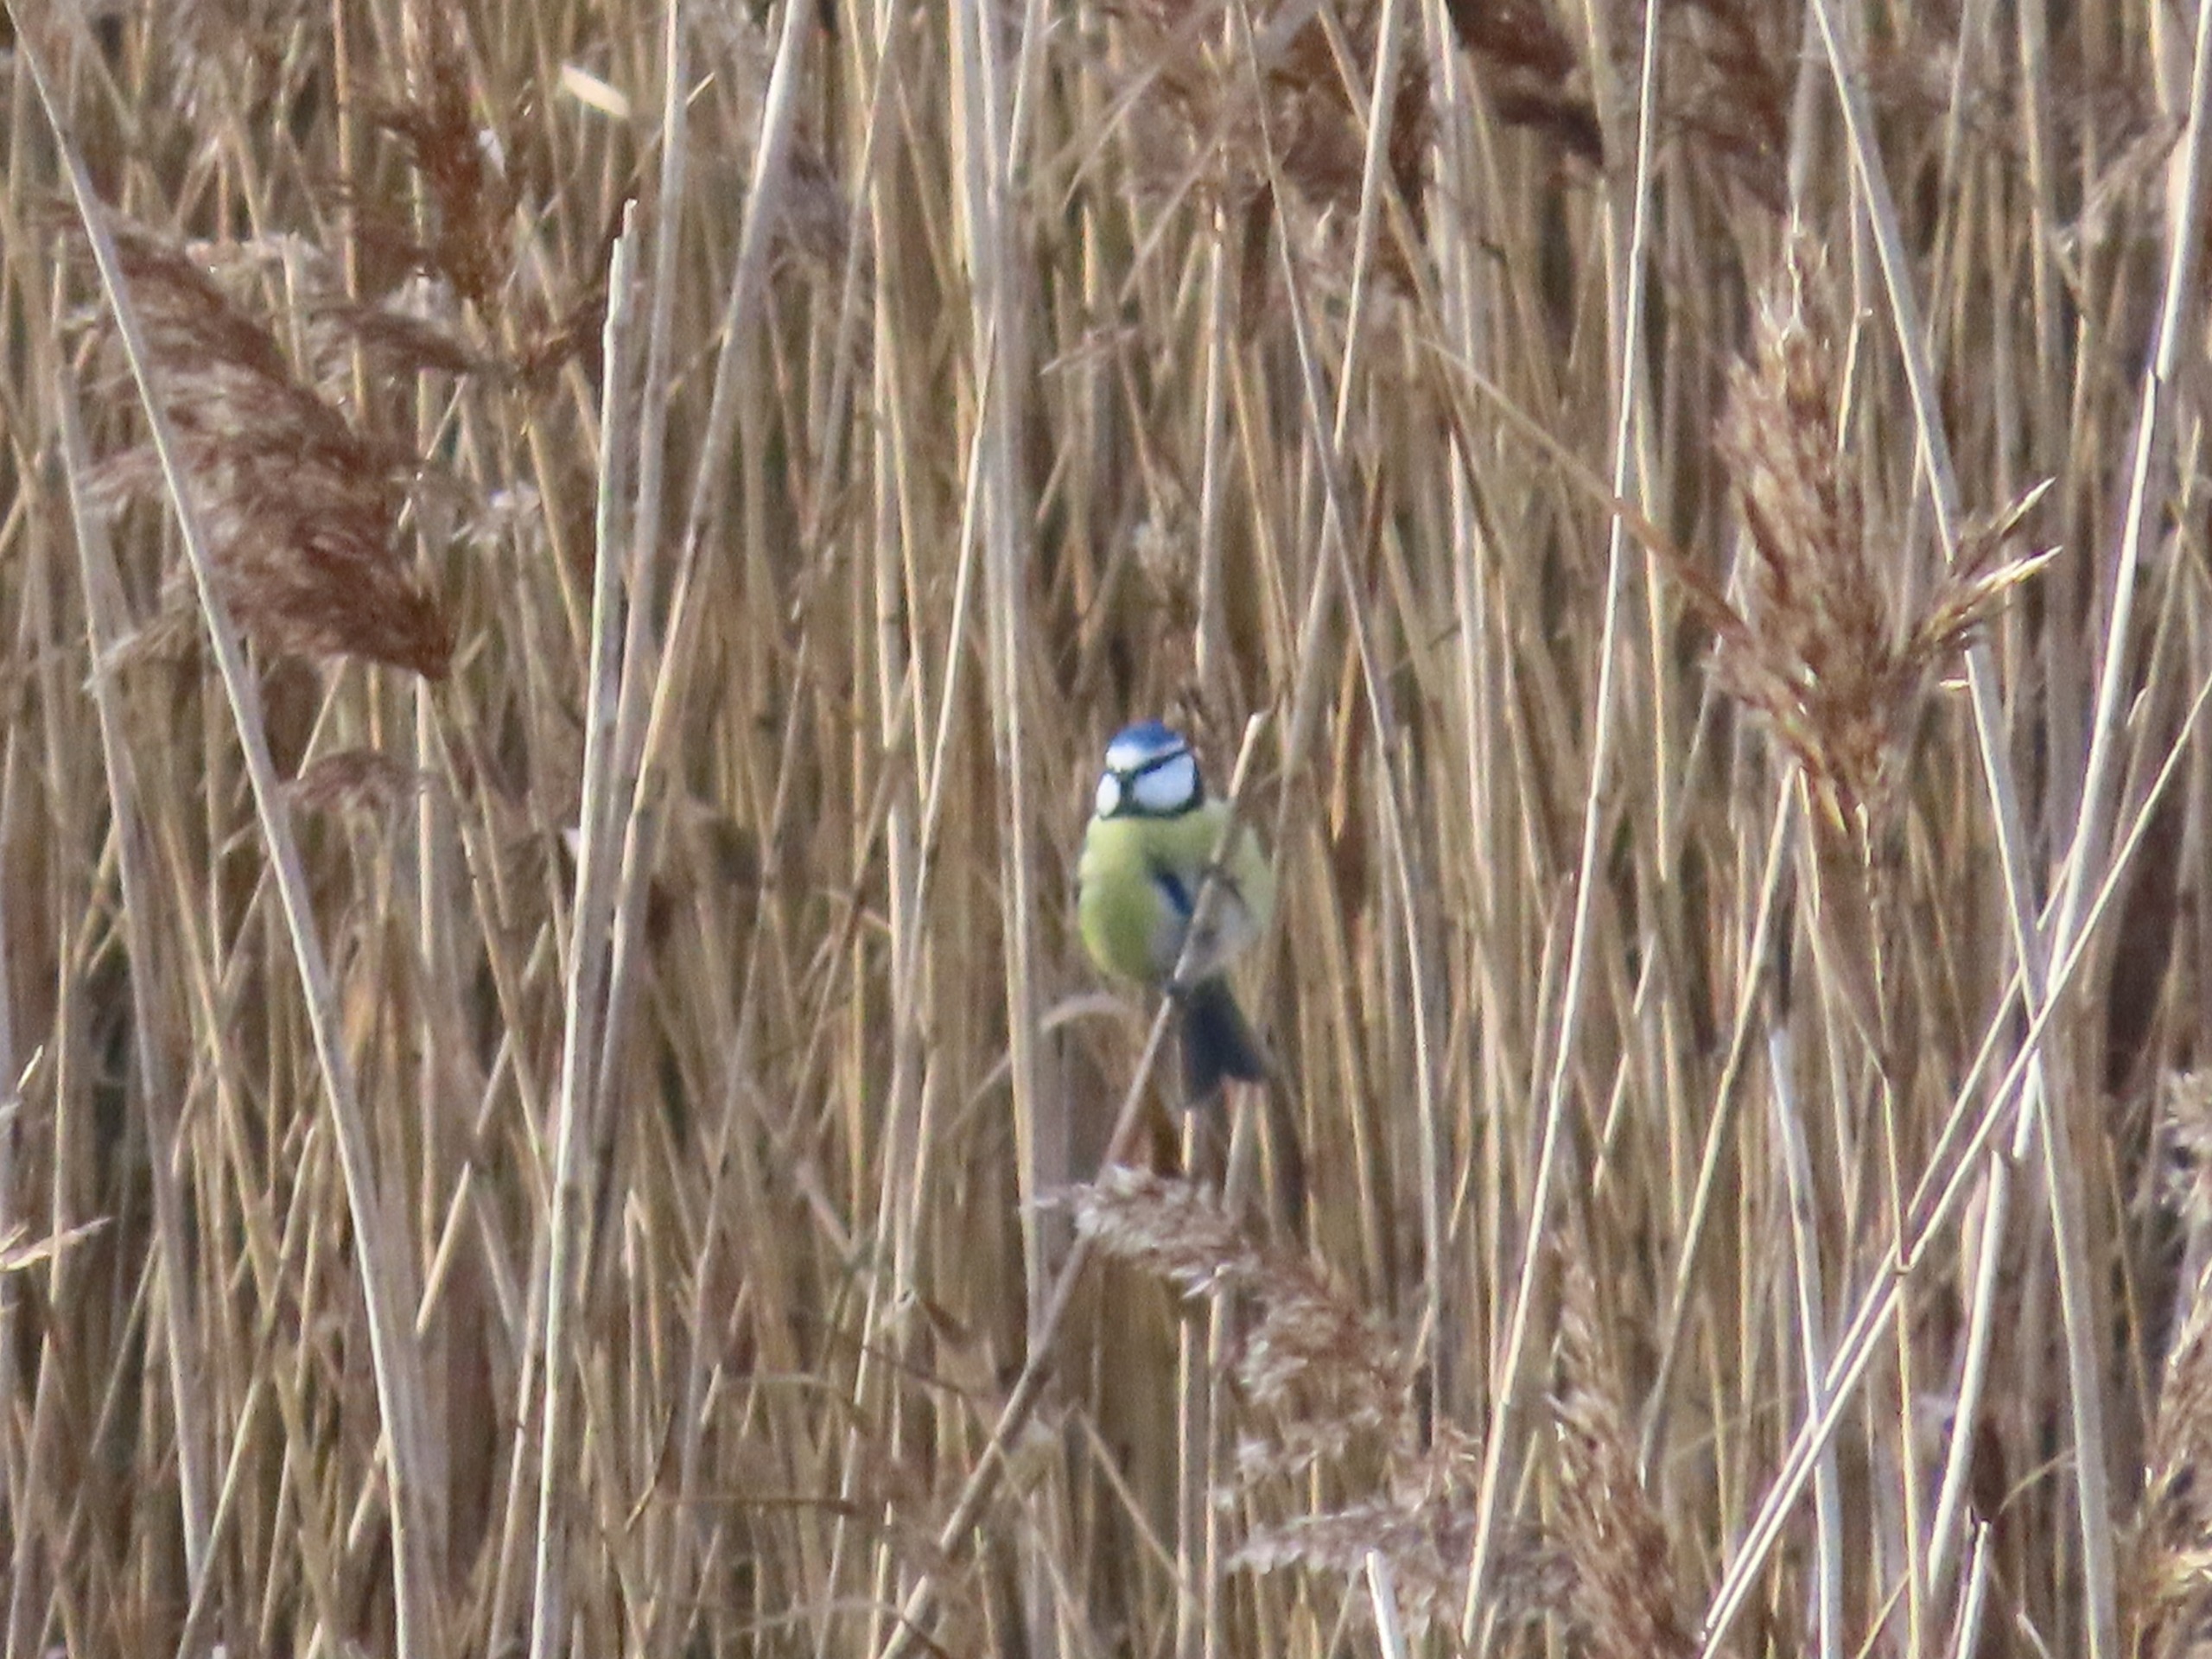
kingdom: Animalia
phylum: Chordata
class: Aves
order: Passeriformes
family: Paridae
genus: Cyanistes
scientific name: Cyanistes caeruleus
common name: Blåmejse
